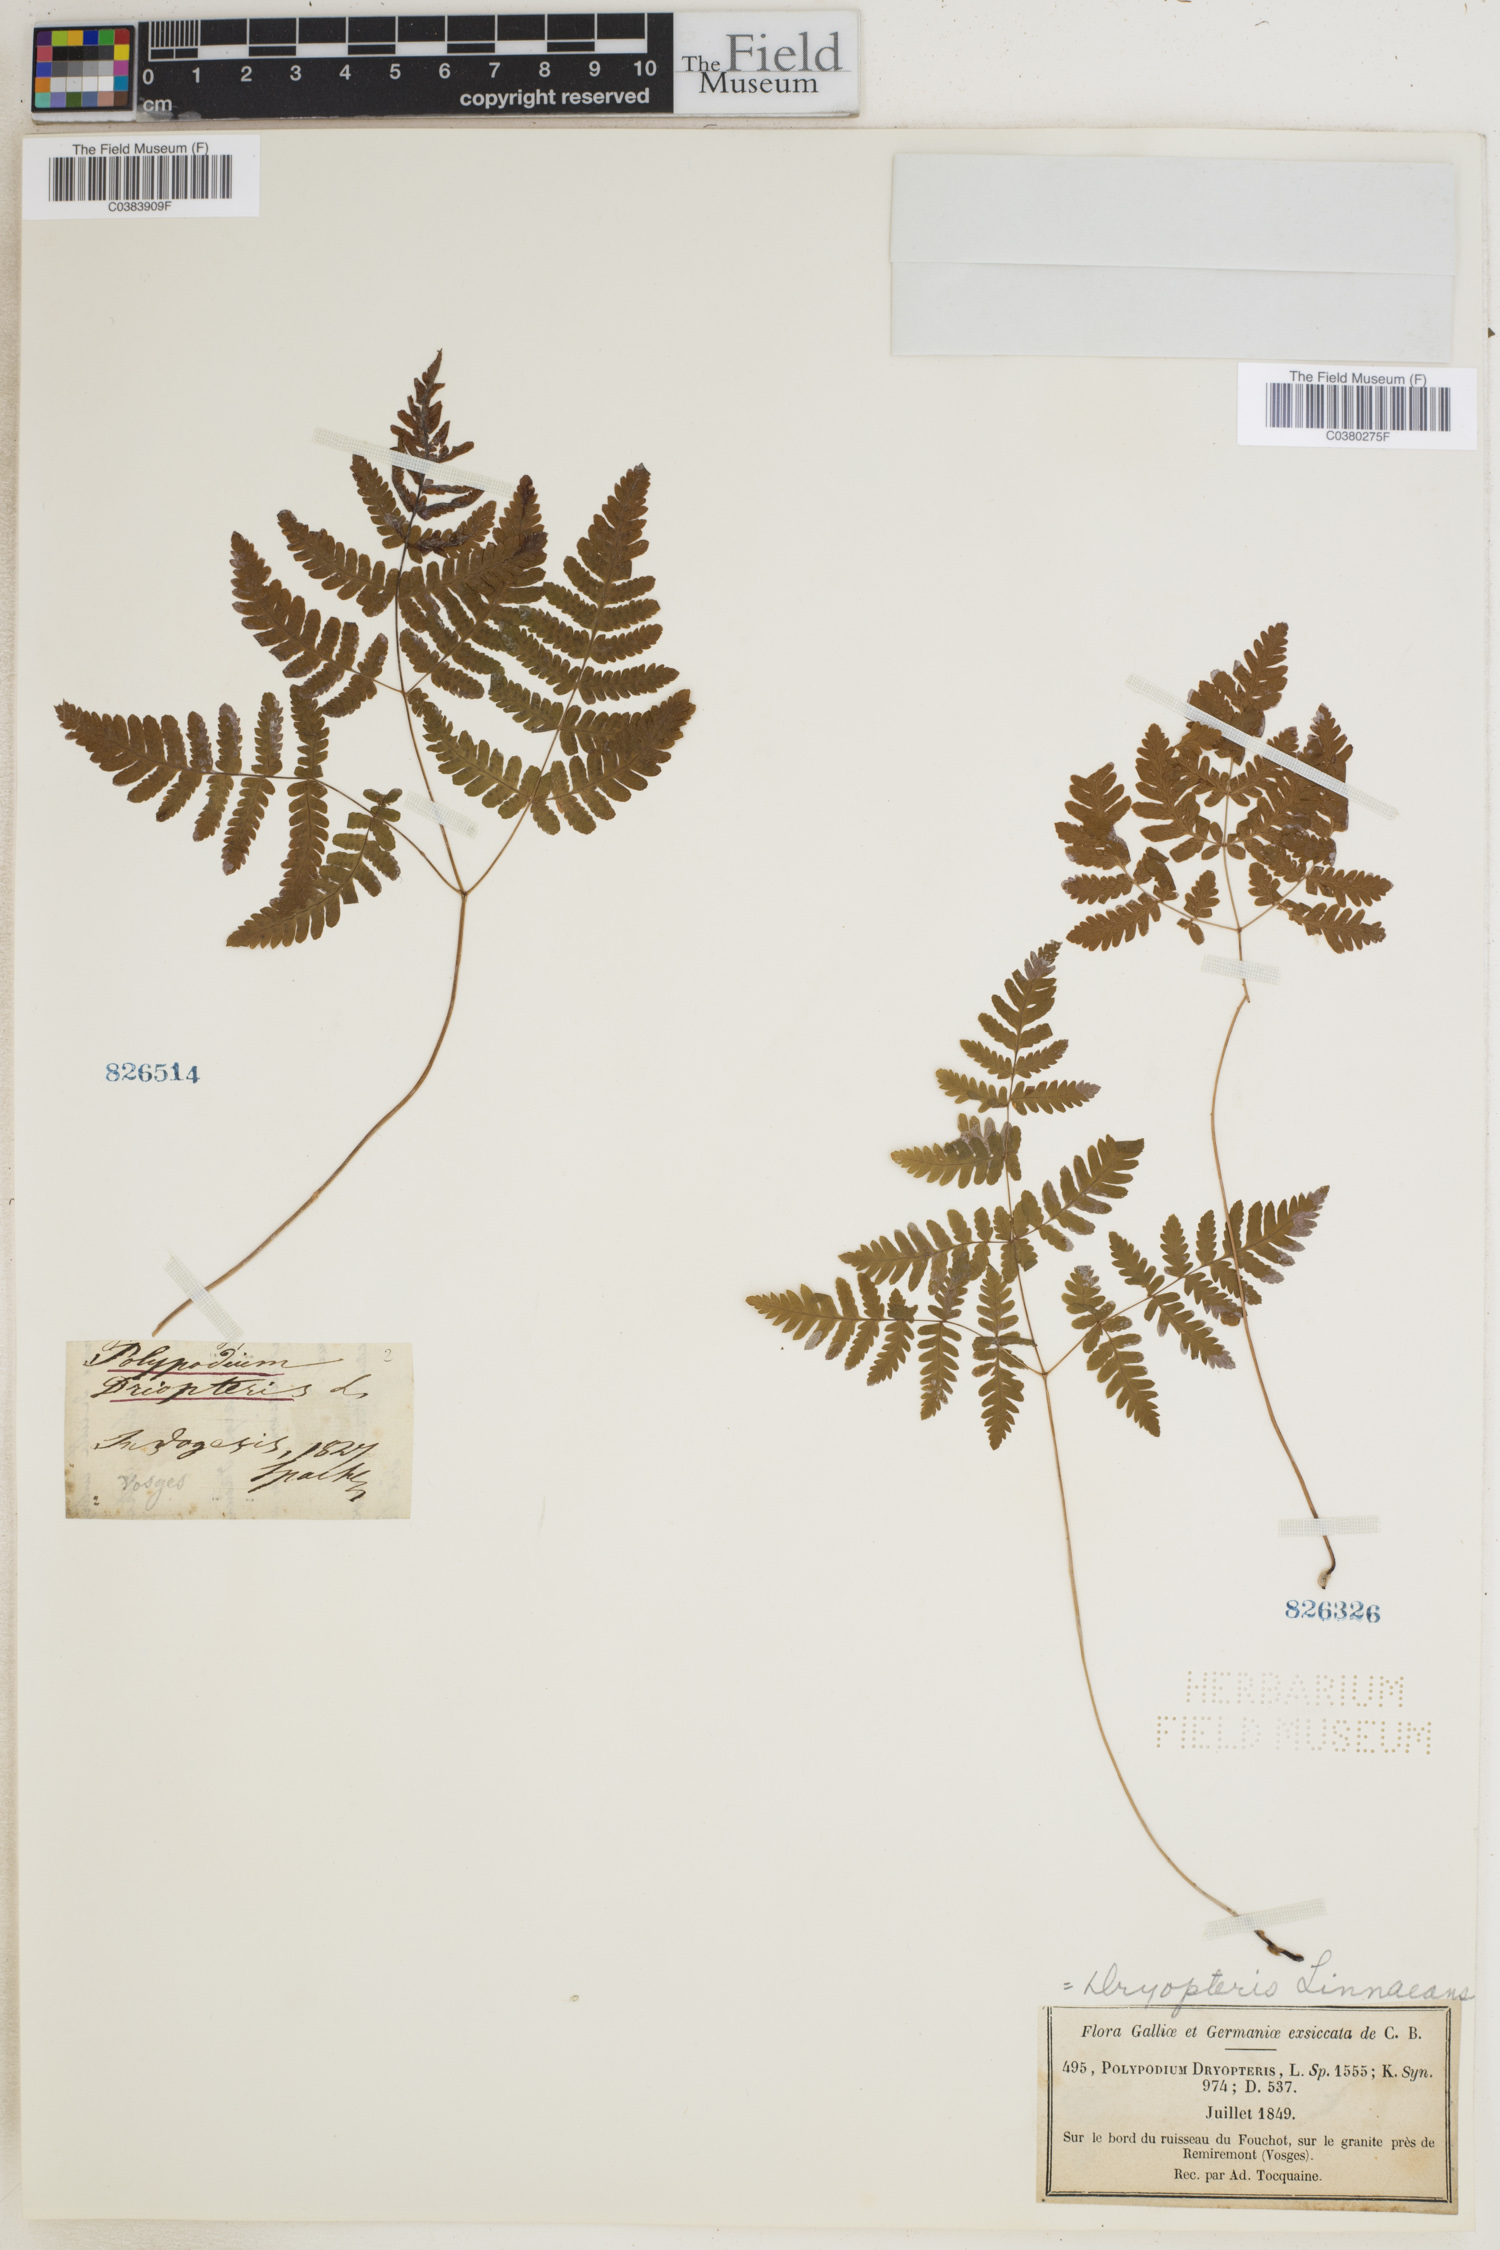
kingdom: Plantae
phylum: Tracheophyta
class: Polypodiopsida
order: Polypodiales
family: Cystopteridaceae
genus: Gymnocarpium
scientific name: Gymnocarpium dryopteris
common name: Oak fern
